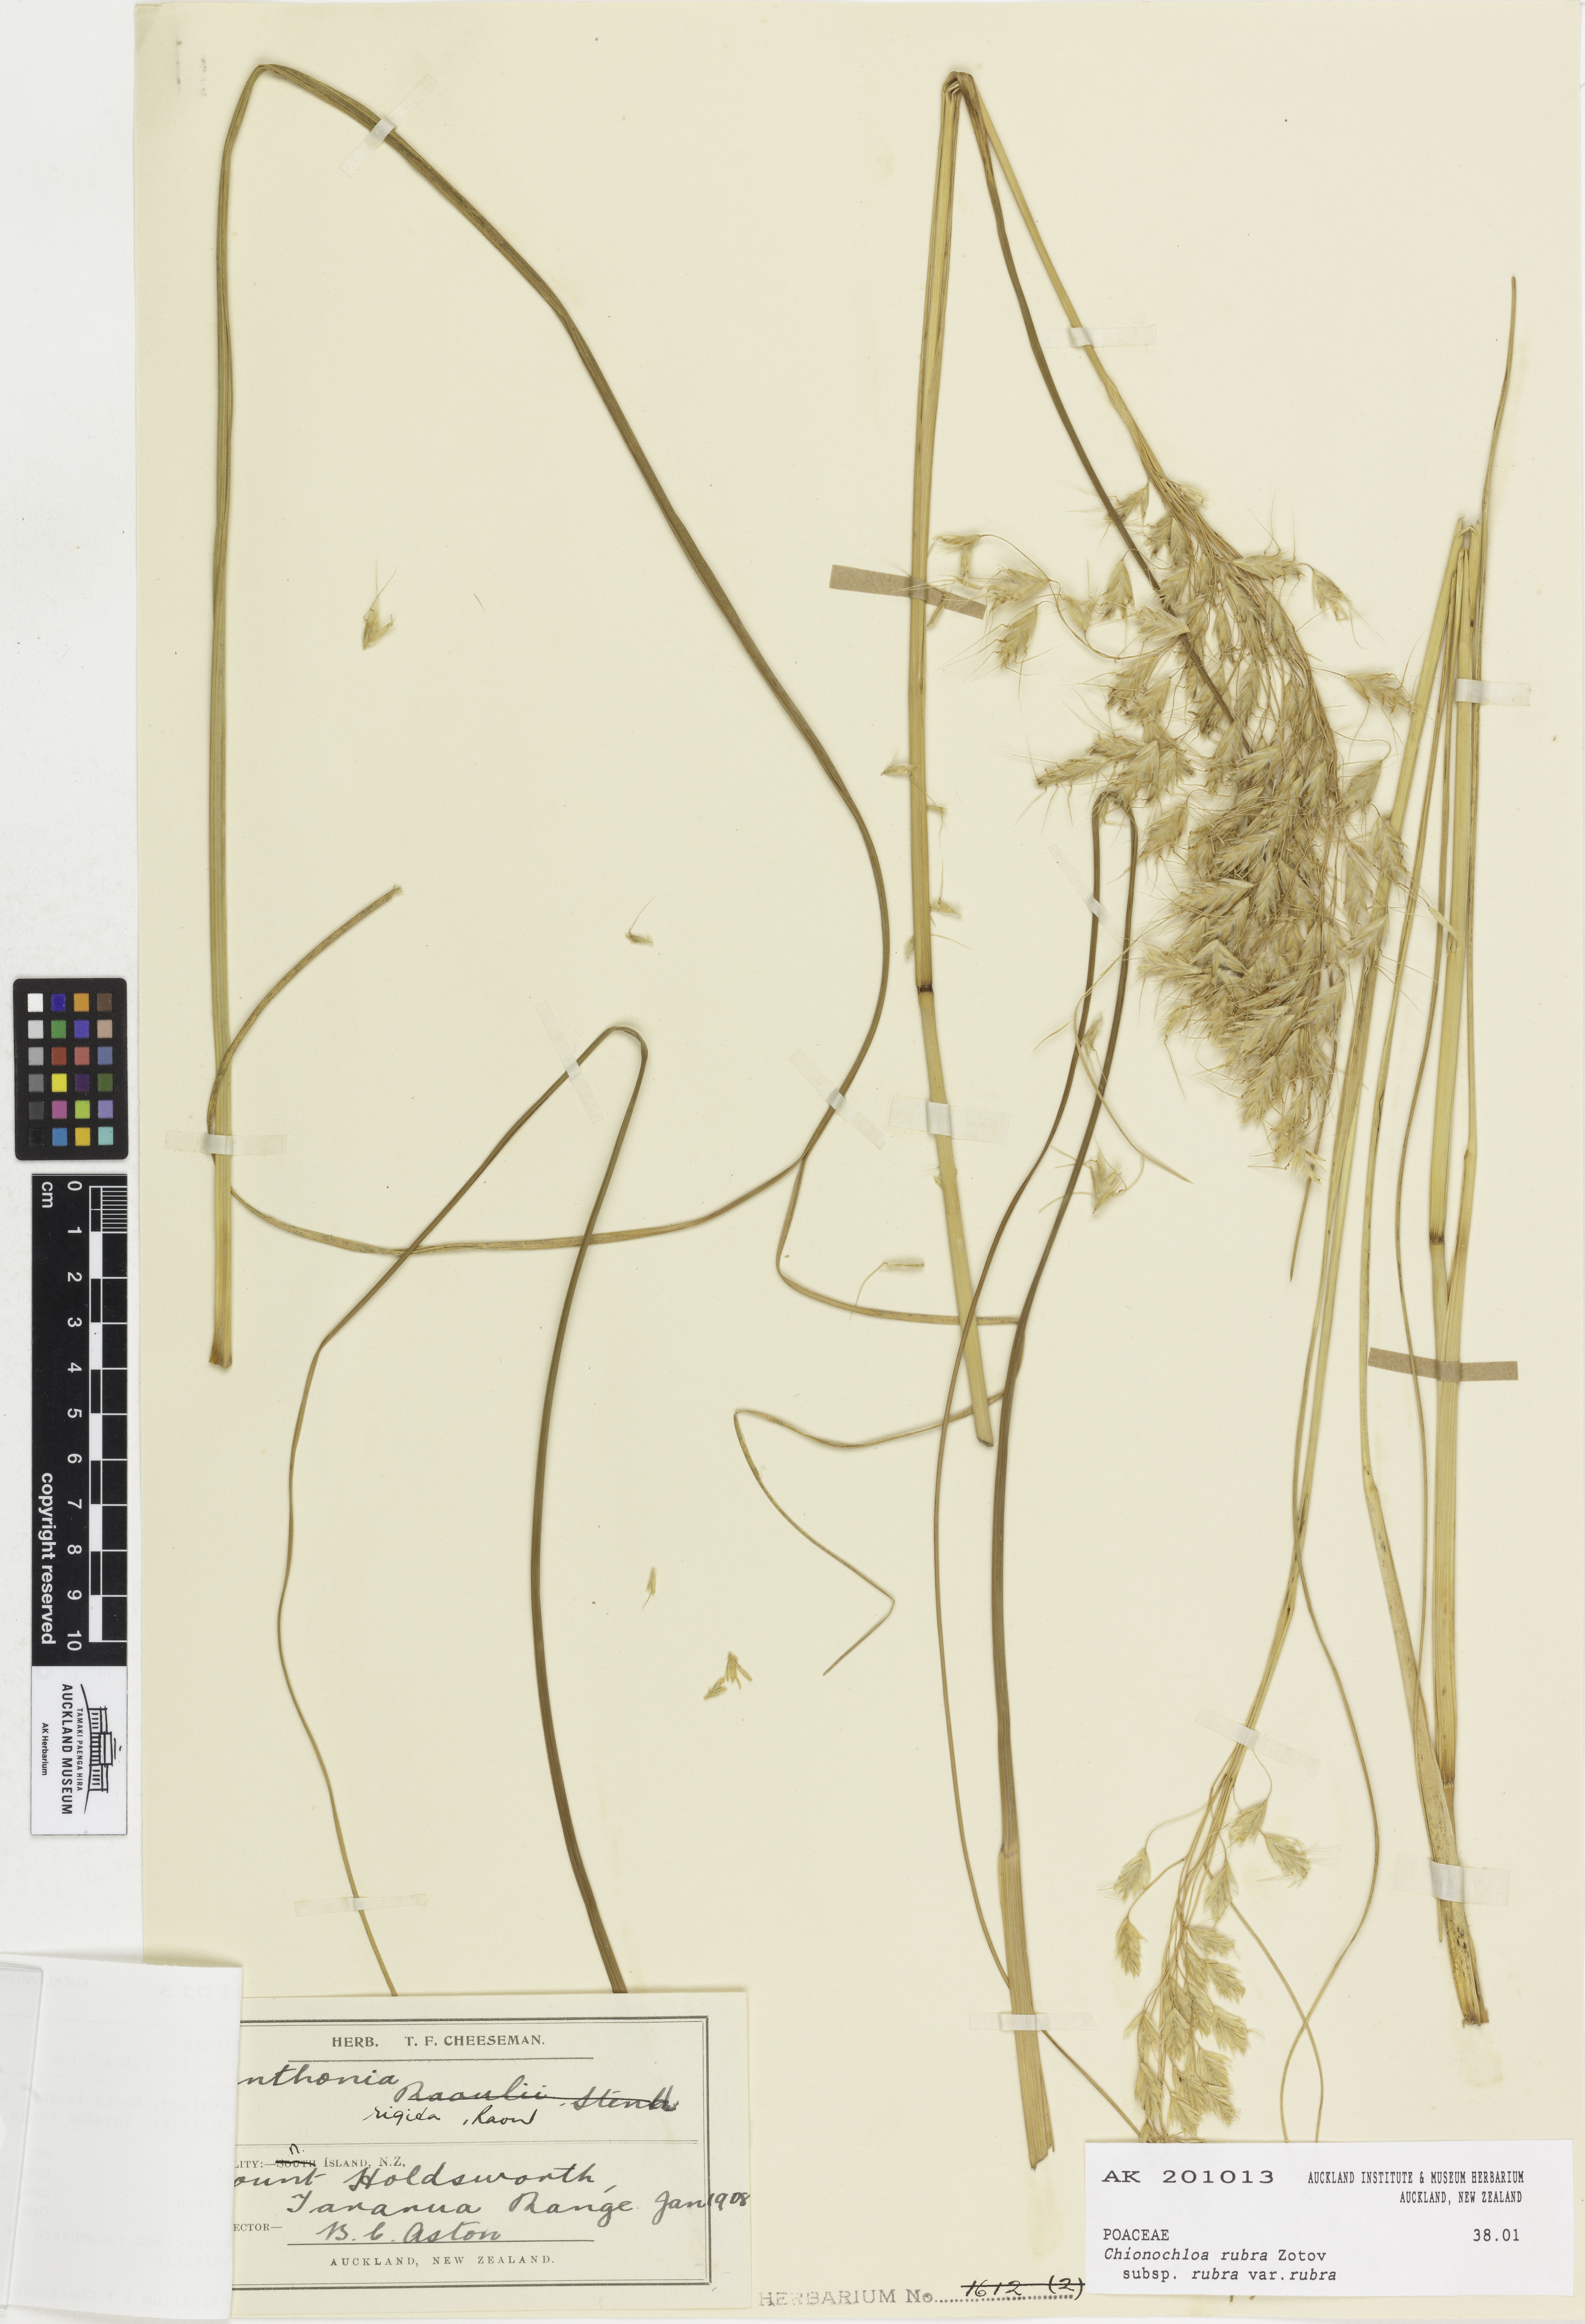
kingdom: Plantae
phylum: Tracheophyta
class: Liliopsida
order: Poales
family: Poaceae
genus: Chionochloa
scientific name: Chionochloa rubra
